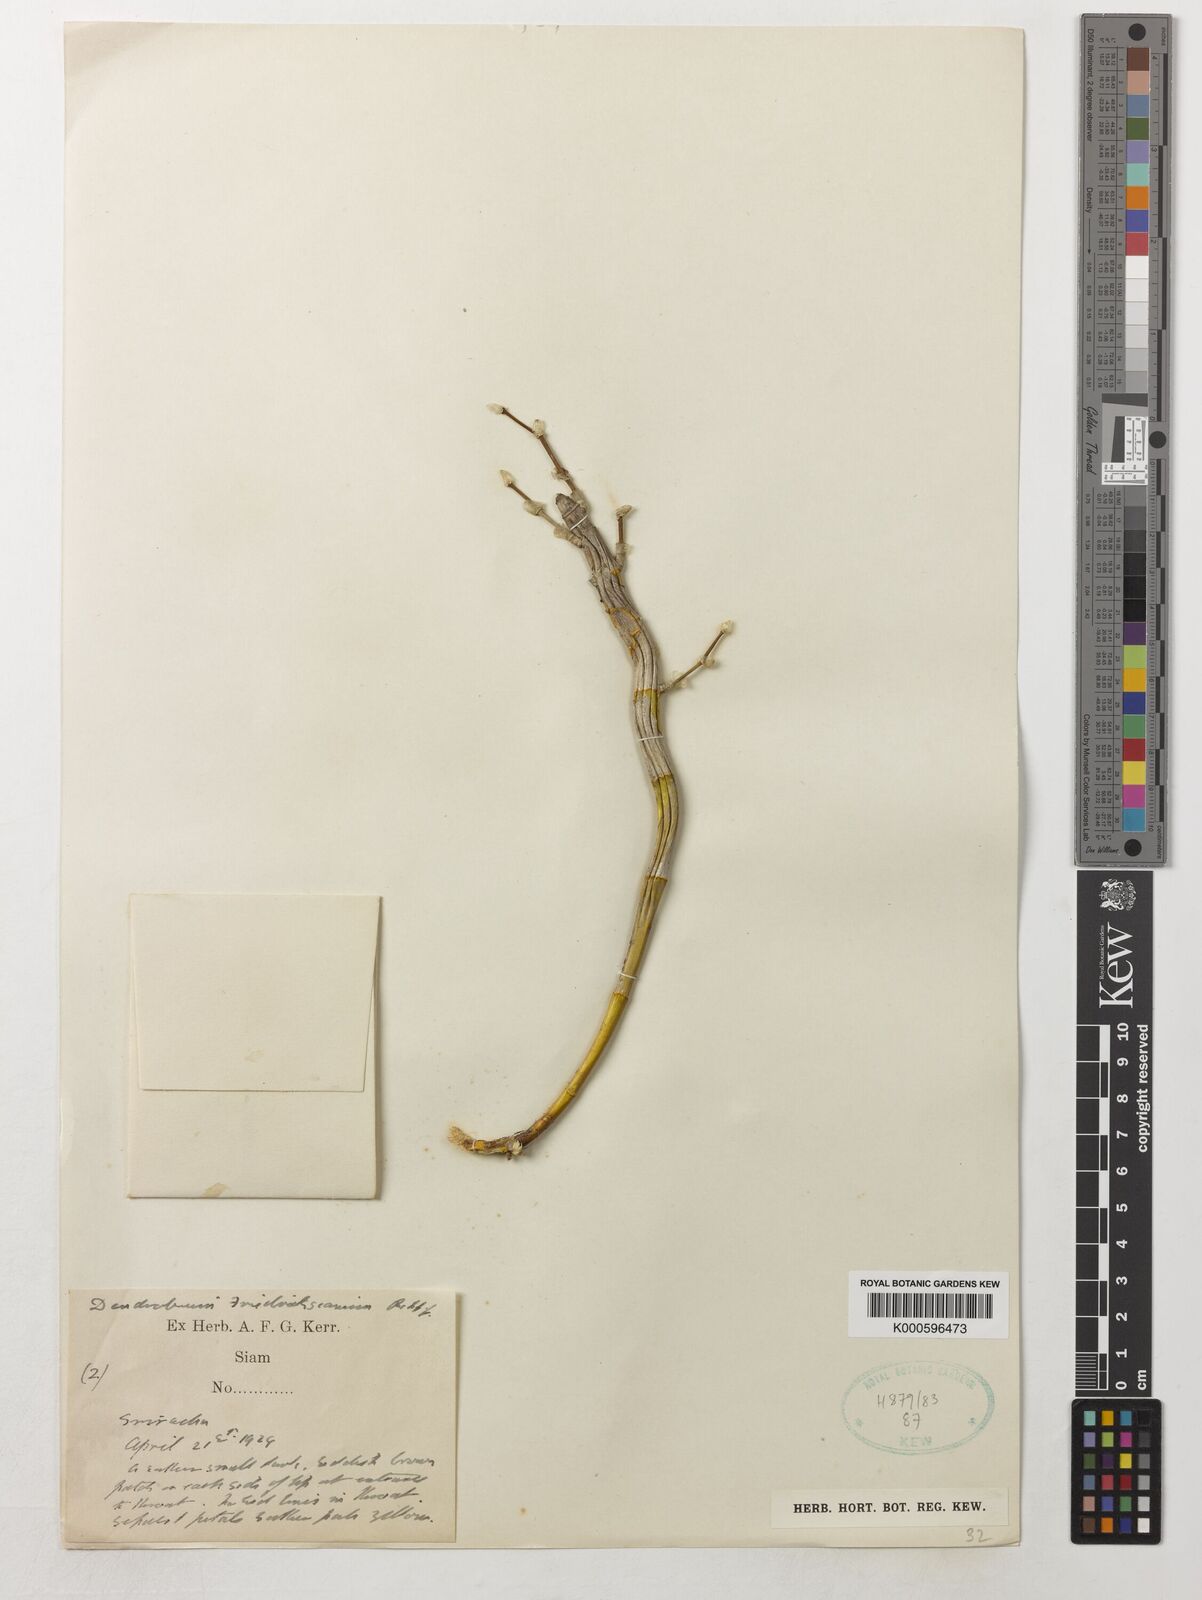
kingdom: Plantae
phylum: Tracheophyta
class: Liliopsida
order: Asparagales
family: Orchidaceae
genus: Dendrobium
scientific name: Dendrobium friedericksianum
